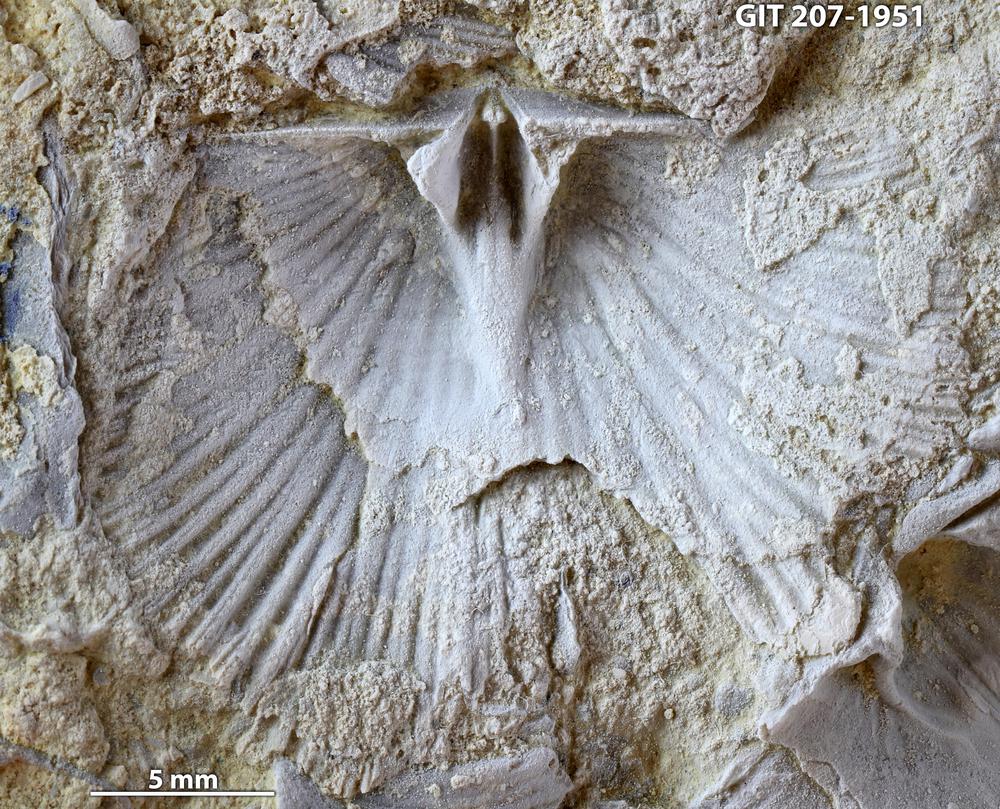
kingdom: Animalia
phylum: Brachiopoda
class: Rhynchonellata
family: Harknessellidae
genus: Horderleyella
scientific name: Horderleyella Dalmanella kegelensis
